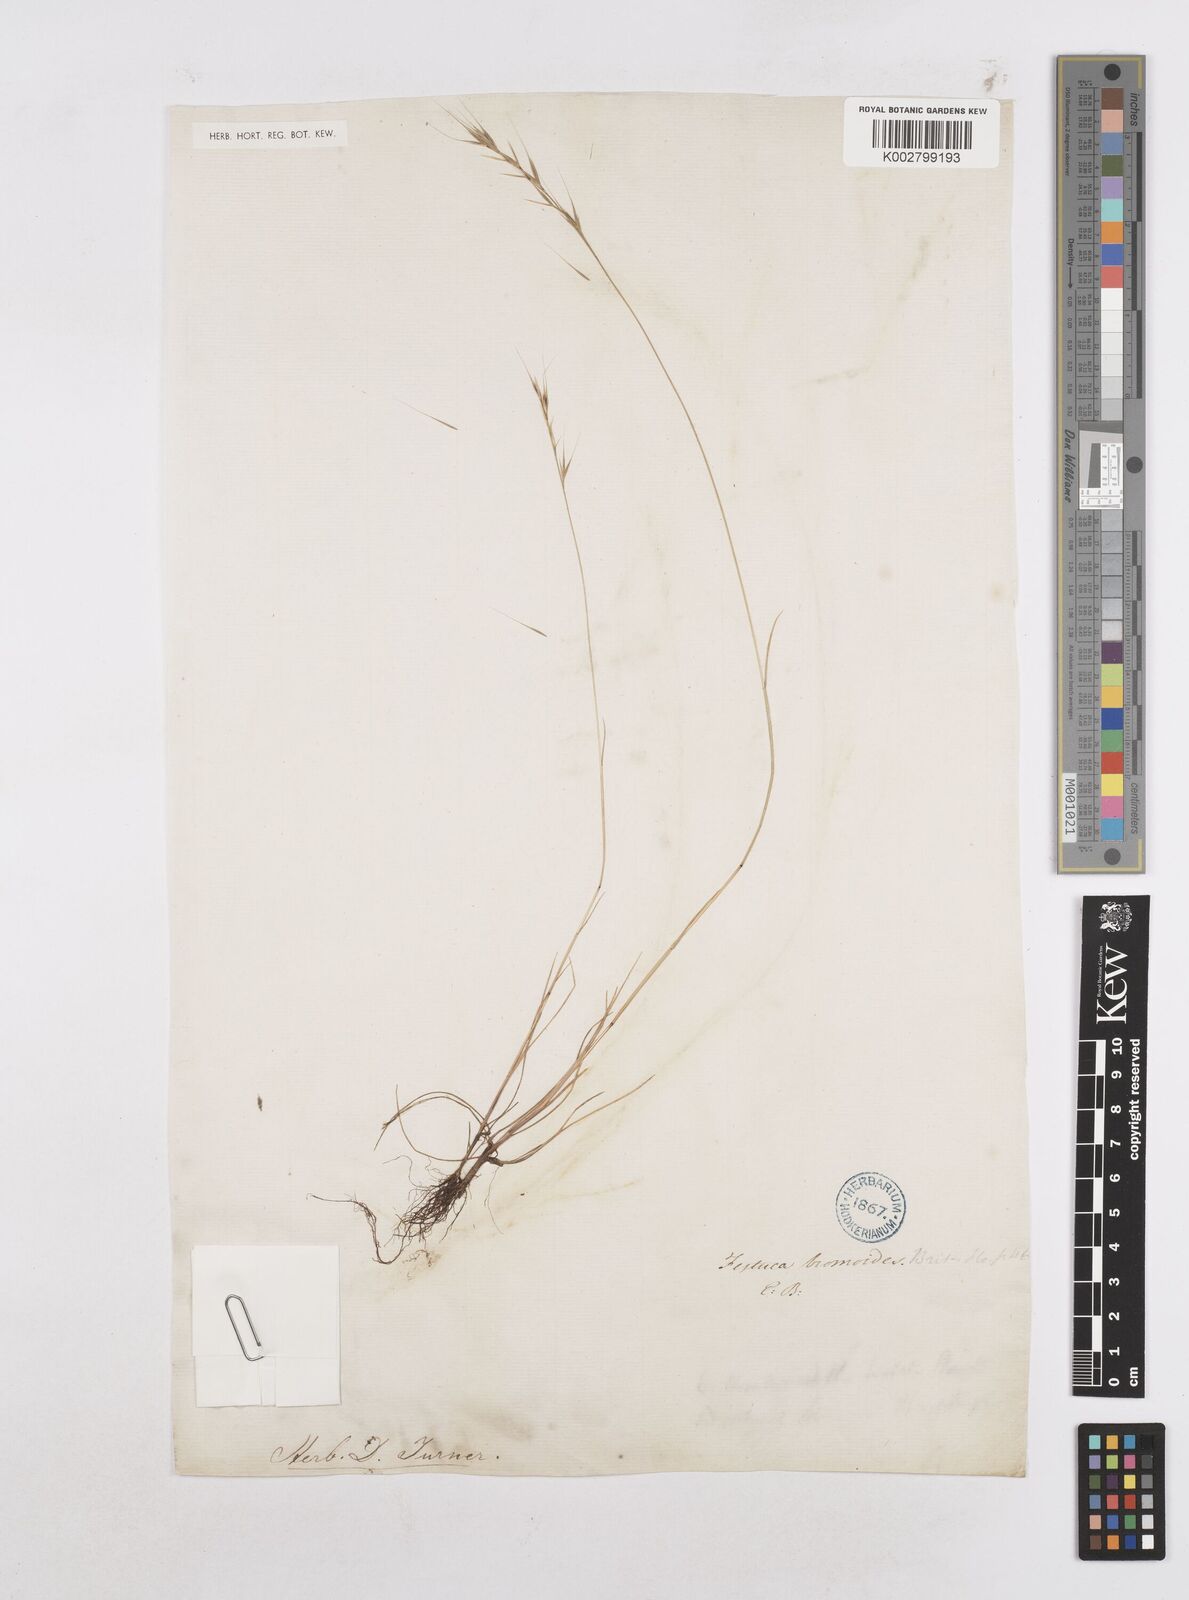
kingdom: Plantae
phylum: Tracheophyta
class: Liliopsida
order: Poales
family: Poaceae
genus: Festuca
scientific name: Festuca bromoides
